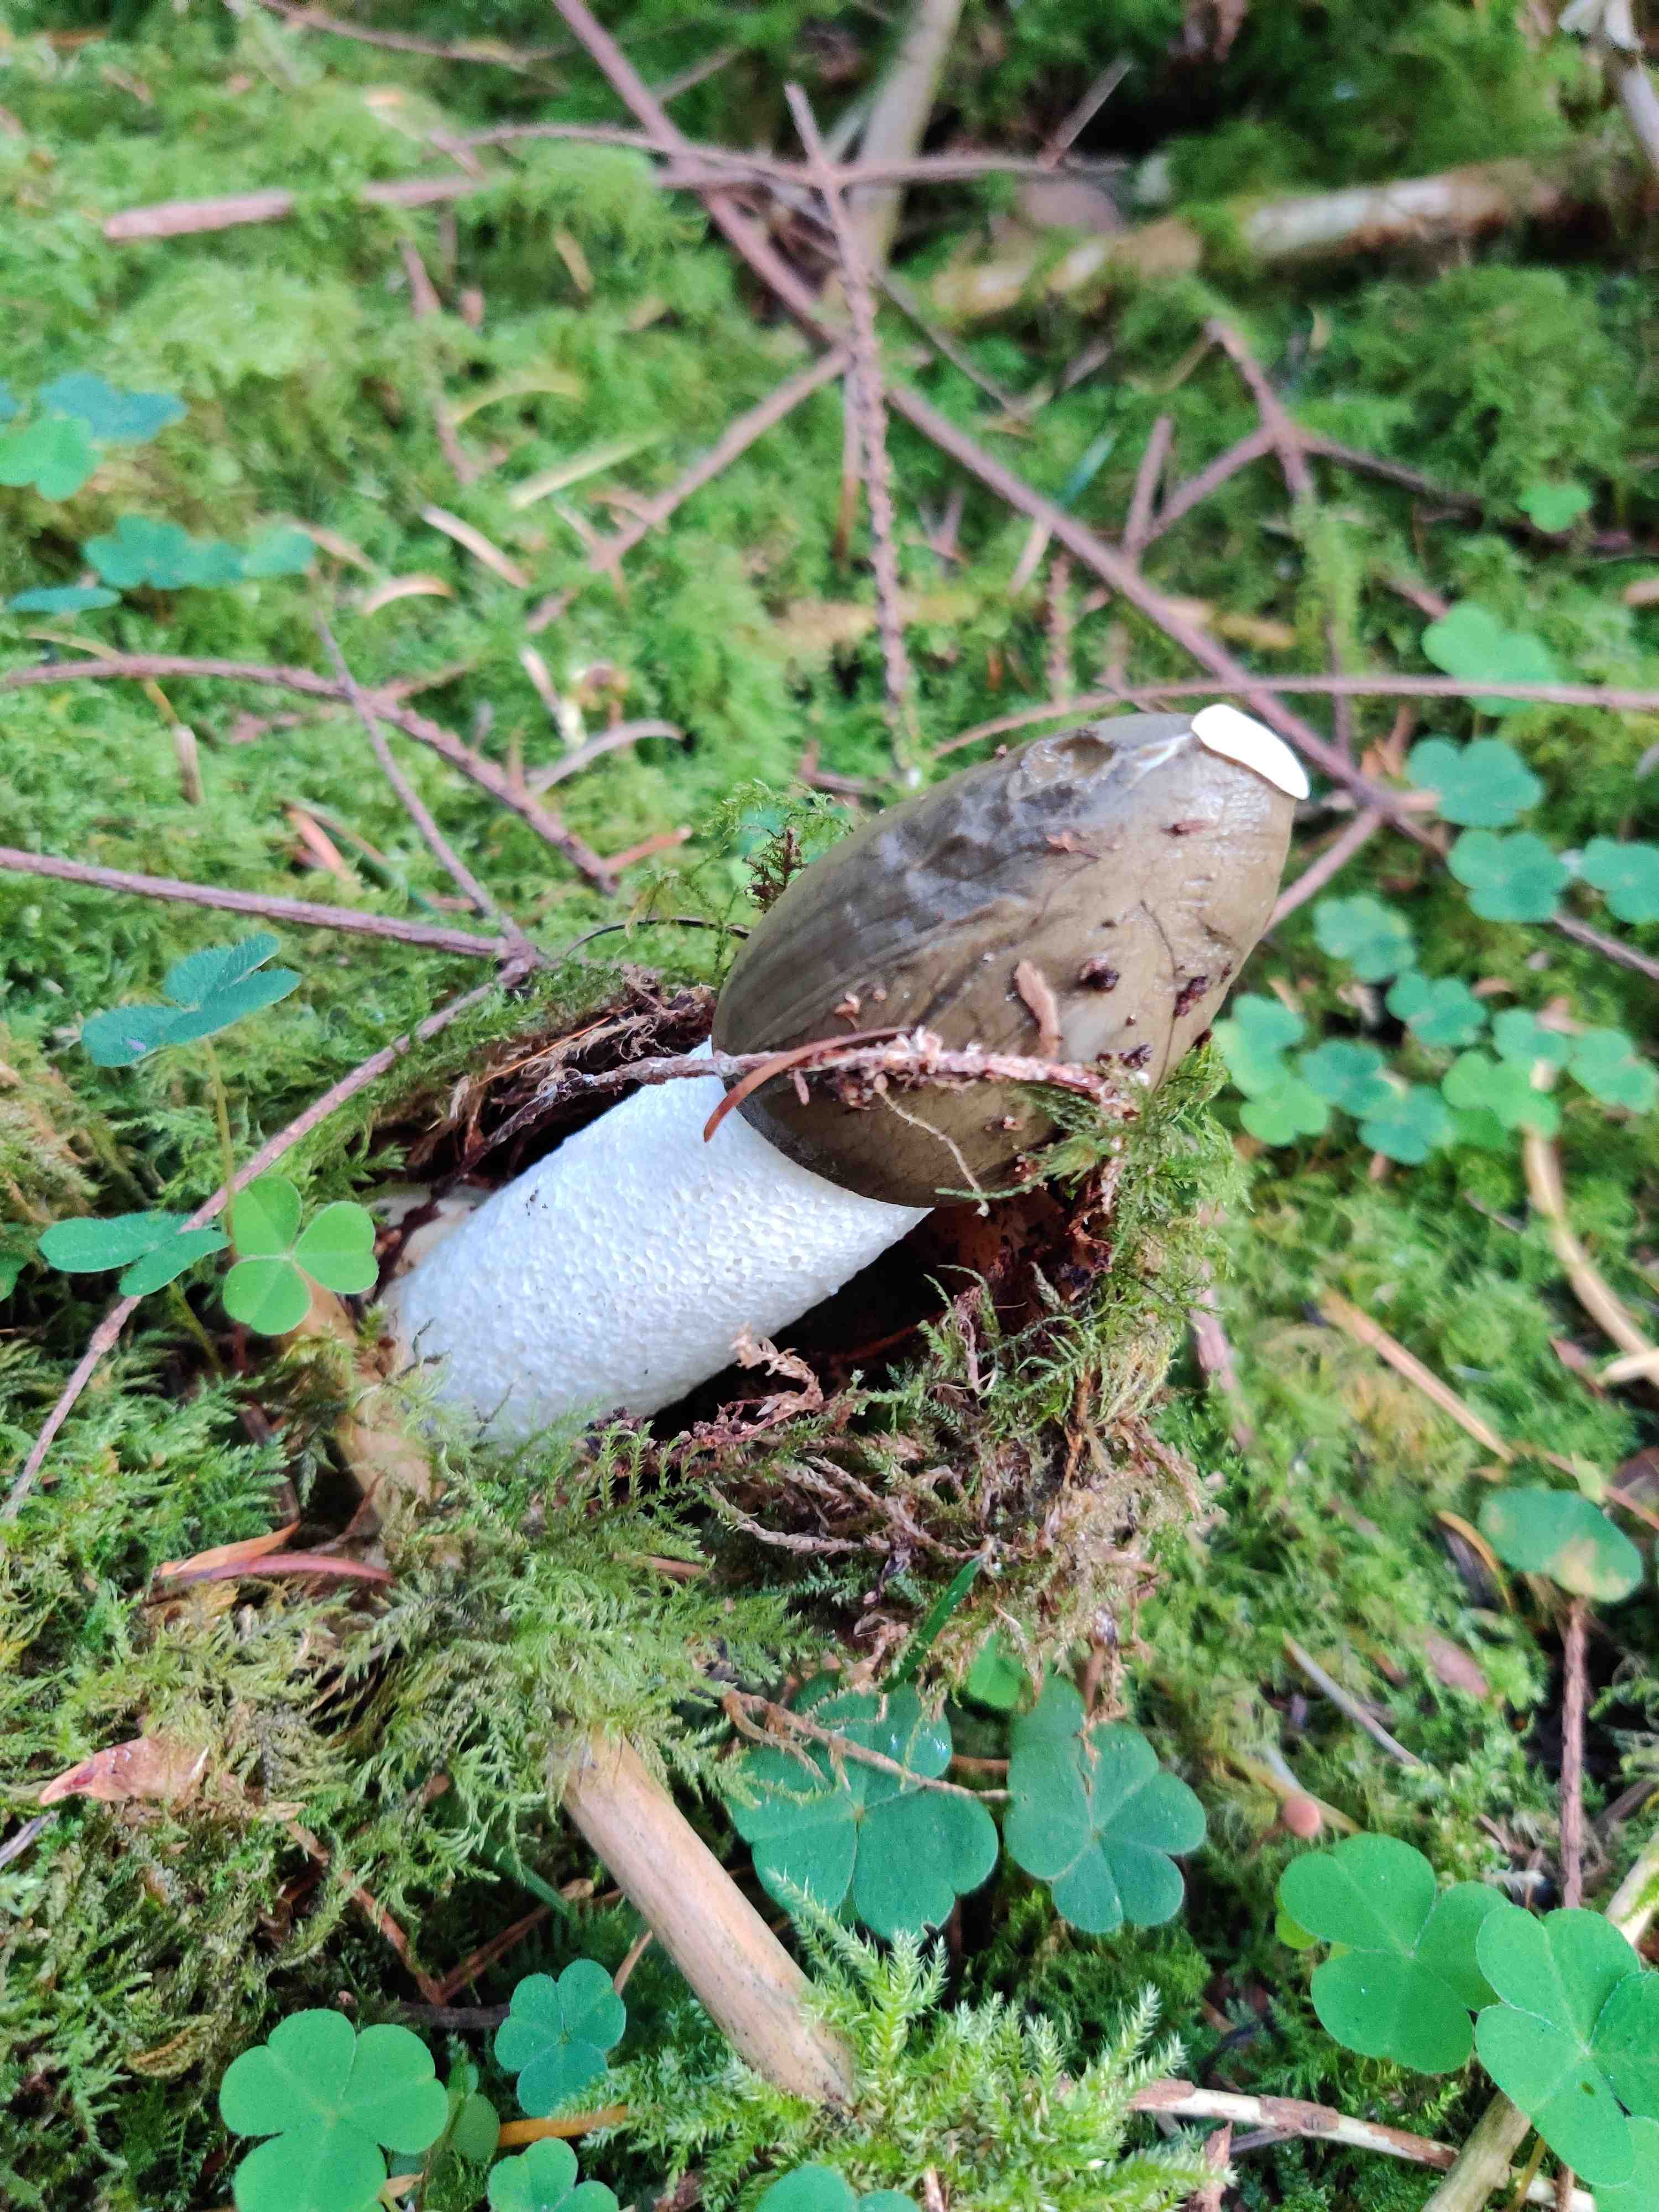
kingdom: Fungi
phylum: Basidiomycota
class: Agaricomycetes
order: Phallales
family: Phallaceae
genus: Phallus
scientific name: Phallus impudicus
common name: almindelig stinksvamp
